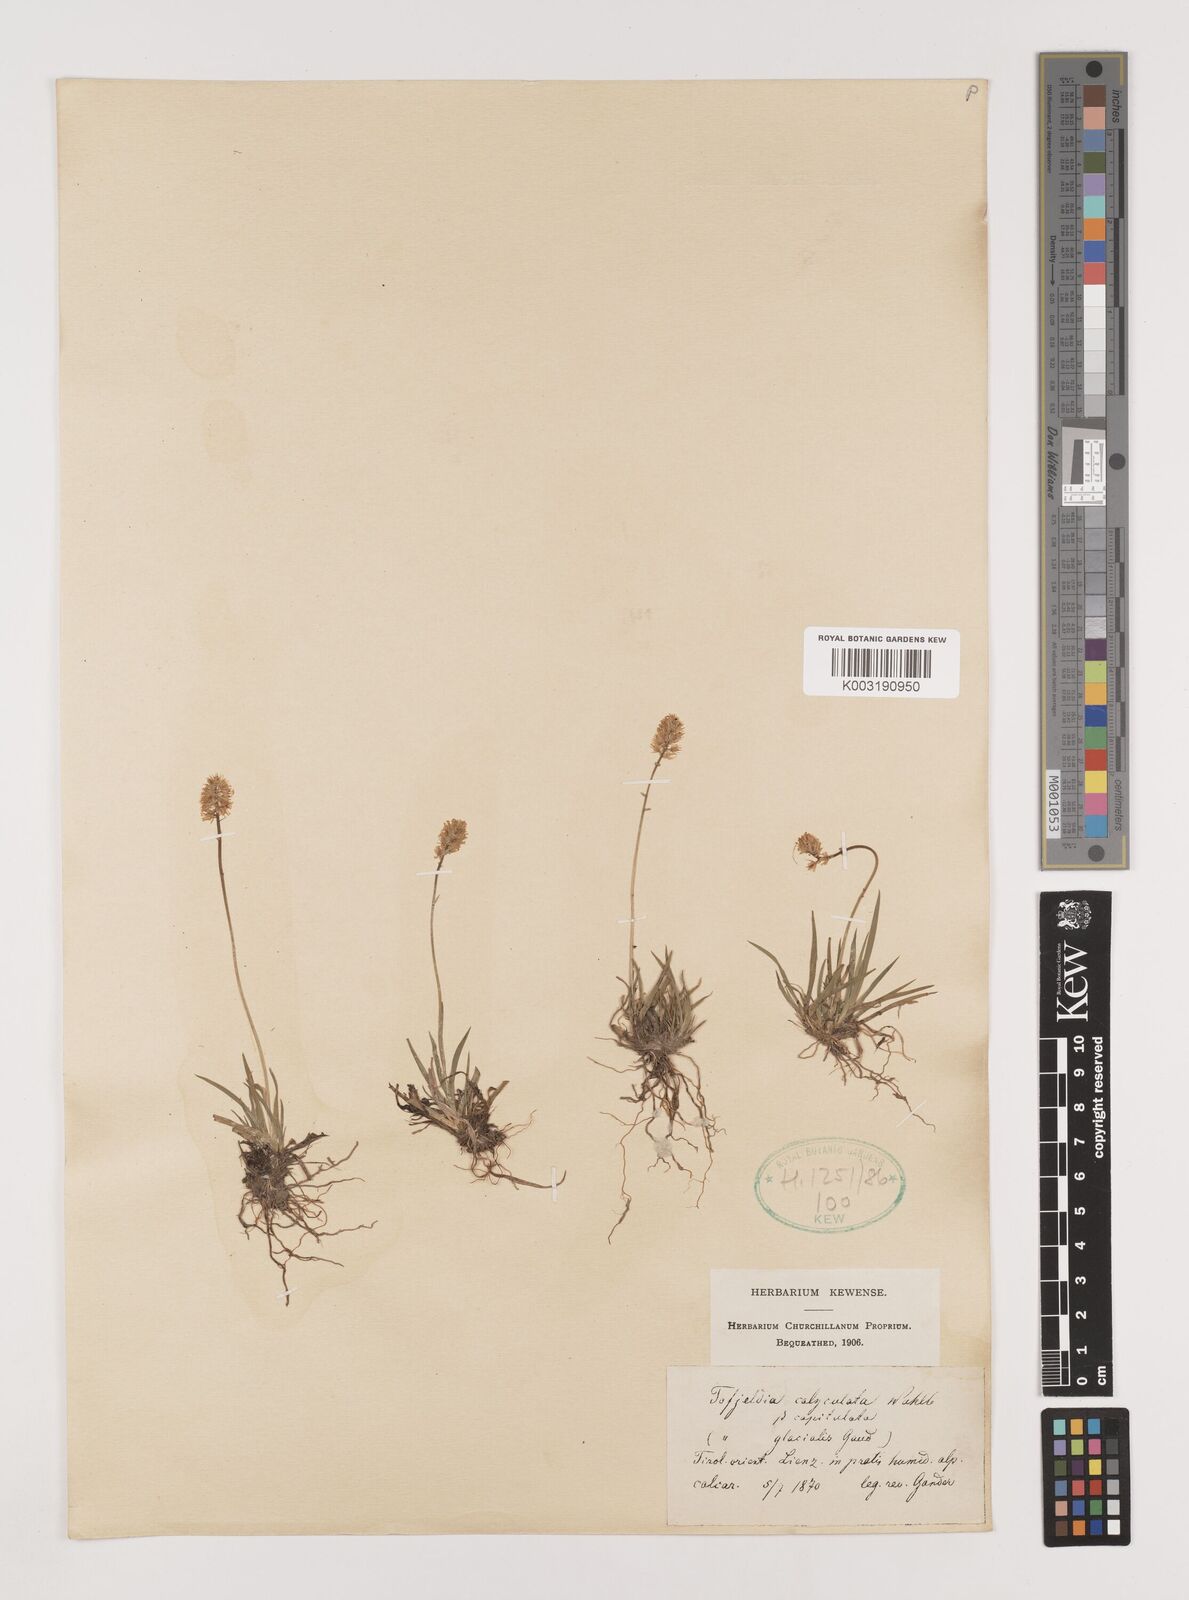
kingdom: Plantae
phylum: Tracheophyta
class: Liliopsida
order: Alismatales
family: Tofieldiaceae
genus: Tofieldia
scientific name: Tofieldia calyculata
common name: German-asphodel
